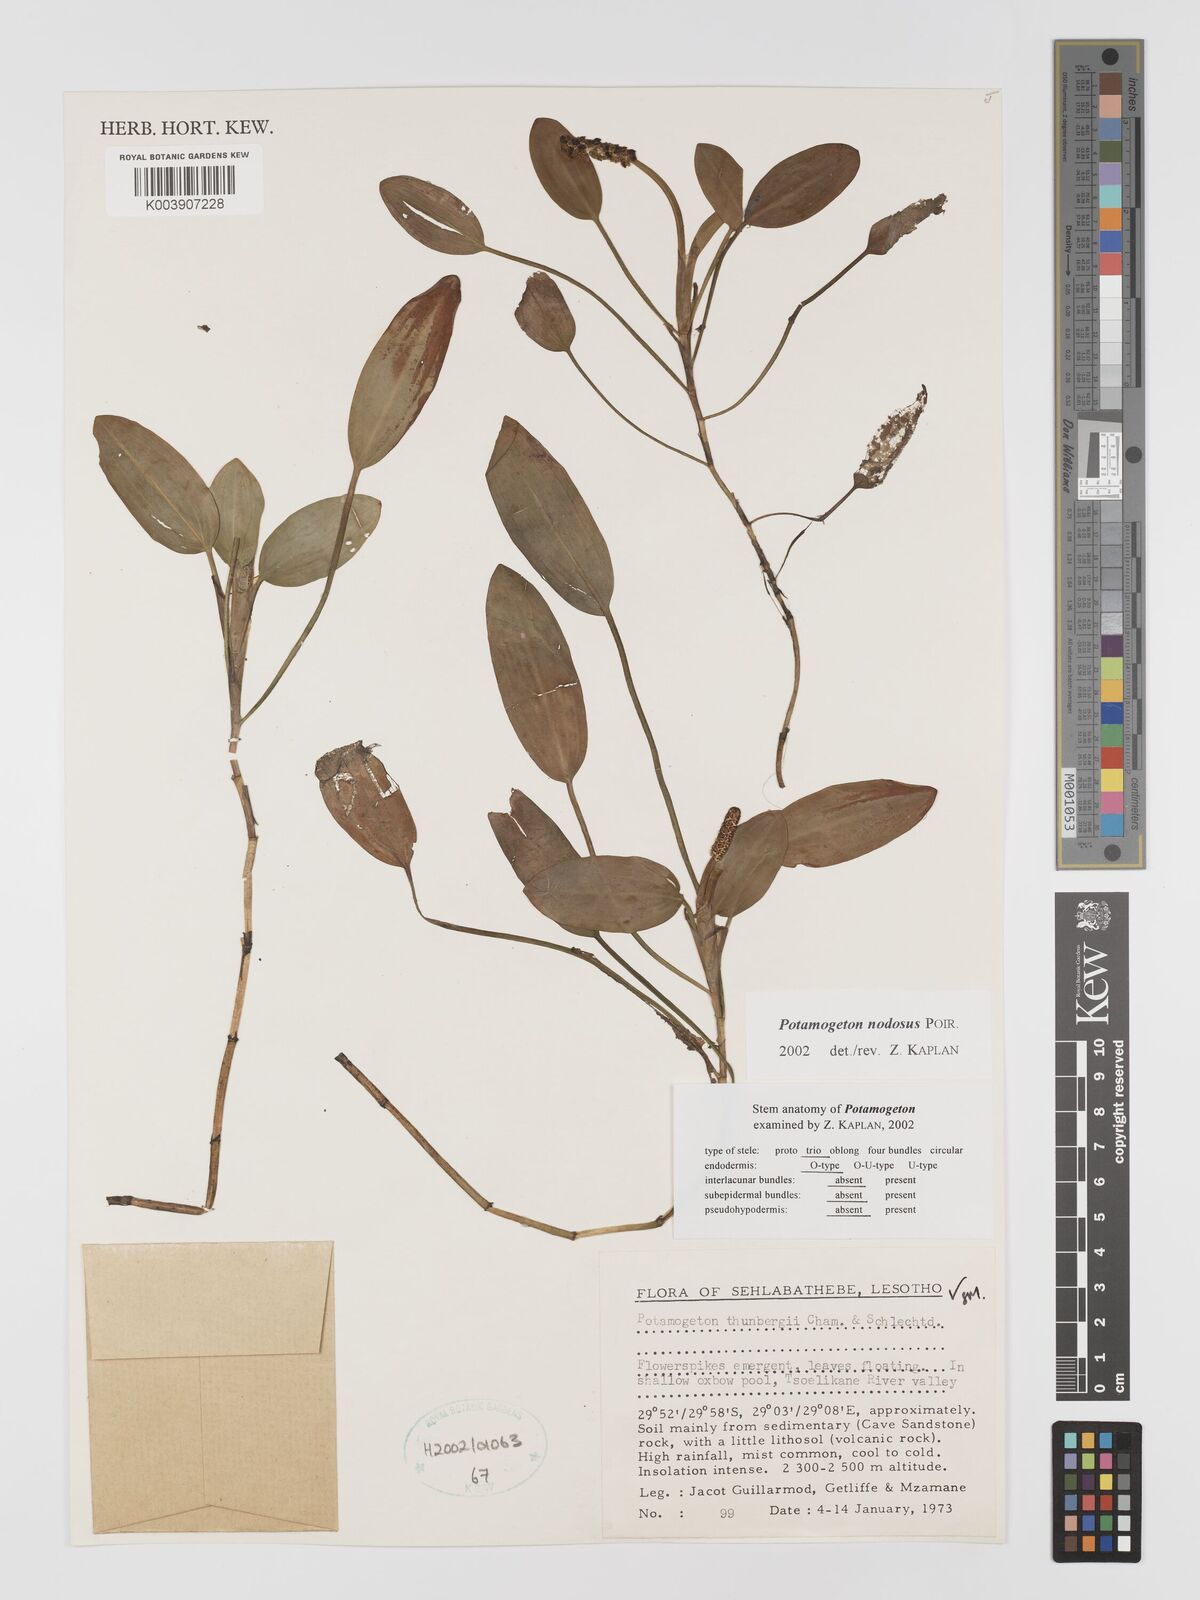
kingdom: Plantae
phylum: Tracheophyta
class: Liliopsida
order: Alismatales
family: Potamogetonaceae
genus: Potamogeton
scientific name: Potamogeton nodosus
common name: Loddon pondweed
